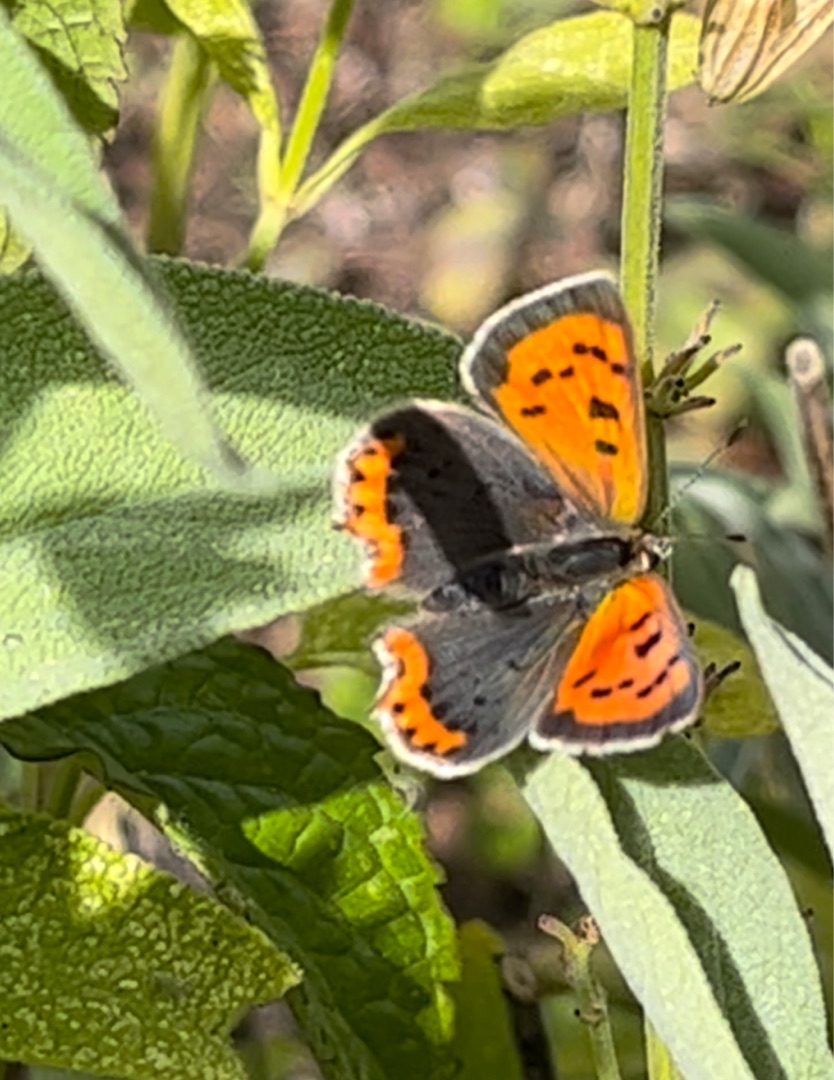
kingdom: Animalia
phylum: Arthropoda
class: Insecta
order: Lepidoptera
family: Lycaenidae
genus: Lycaena
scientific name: Lycaena phlaeas
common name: Lille ildfugl
